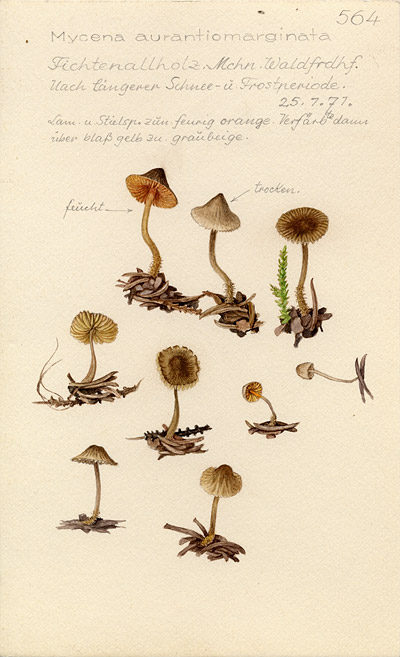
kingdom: Fungi
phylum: Basidiomycota
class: Agaricomycetes
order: Agaricales
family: Mycenaceae
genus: Mycena
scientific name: Mycena aurantiomarginata
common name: Golden edge bonnet
